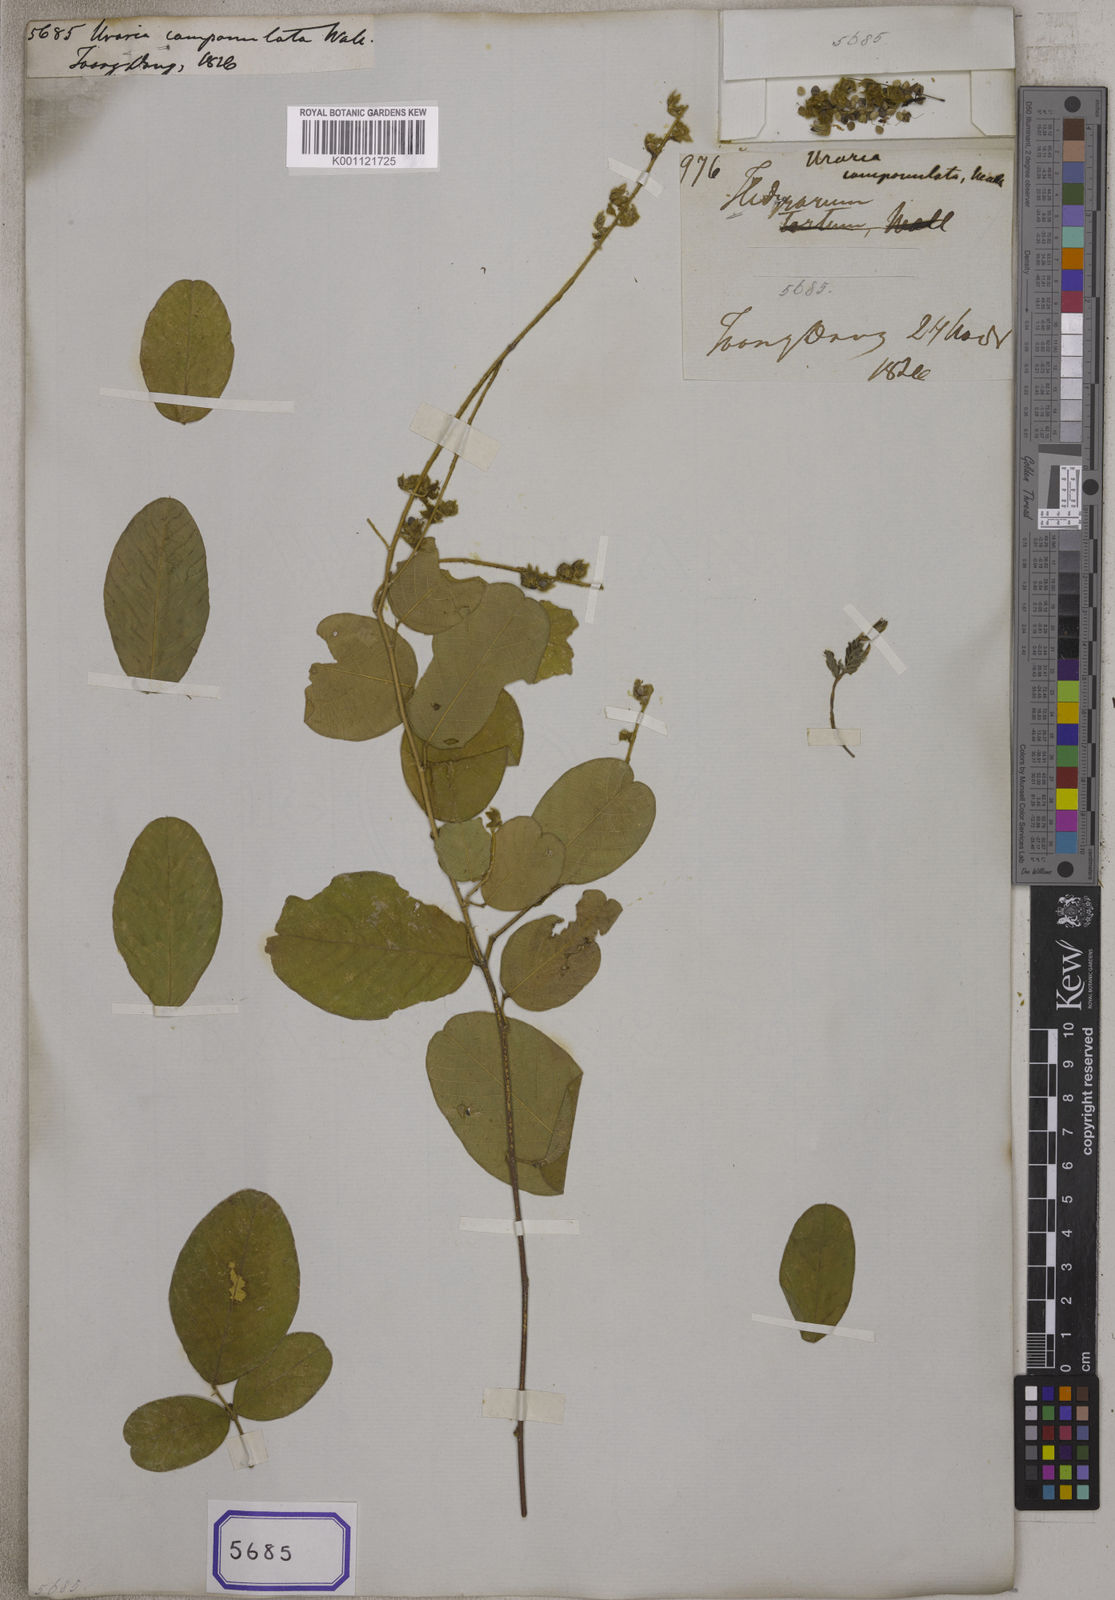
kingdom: Plantae
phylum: Tracheophyta
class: Magnoliopsida
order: Fabales
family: Fabaceae
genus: Uraria
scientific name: Uraria
